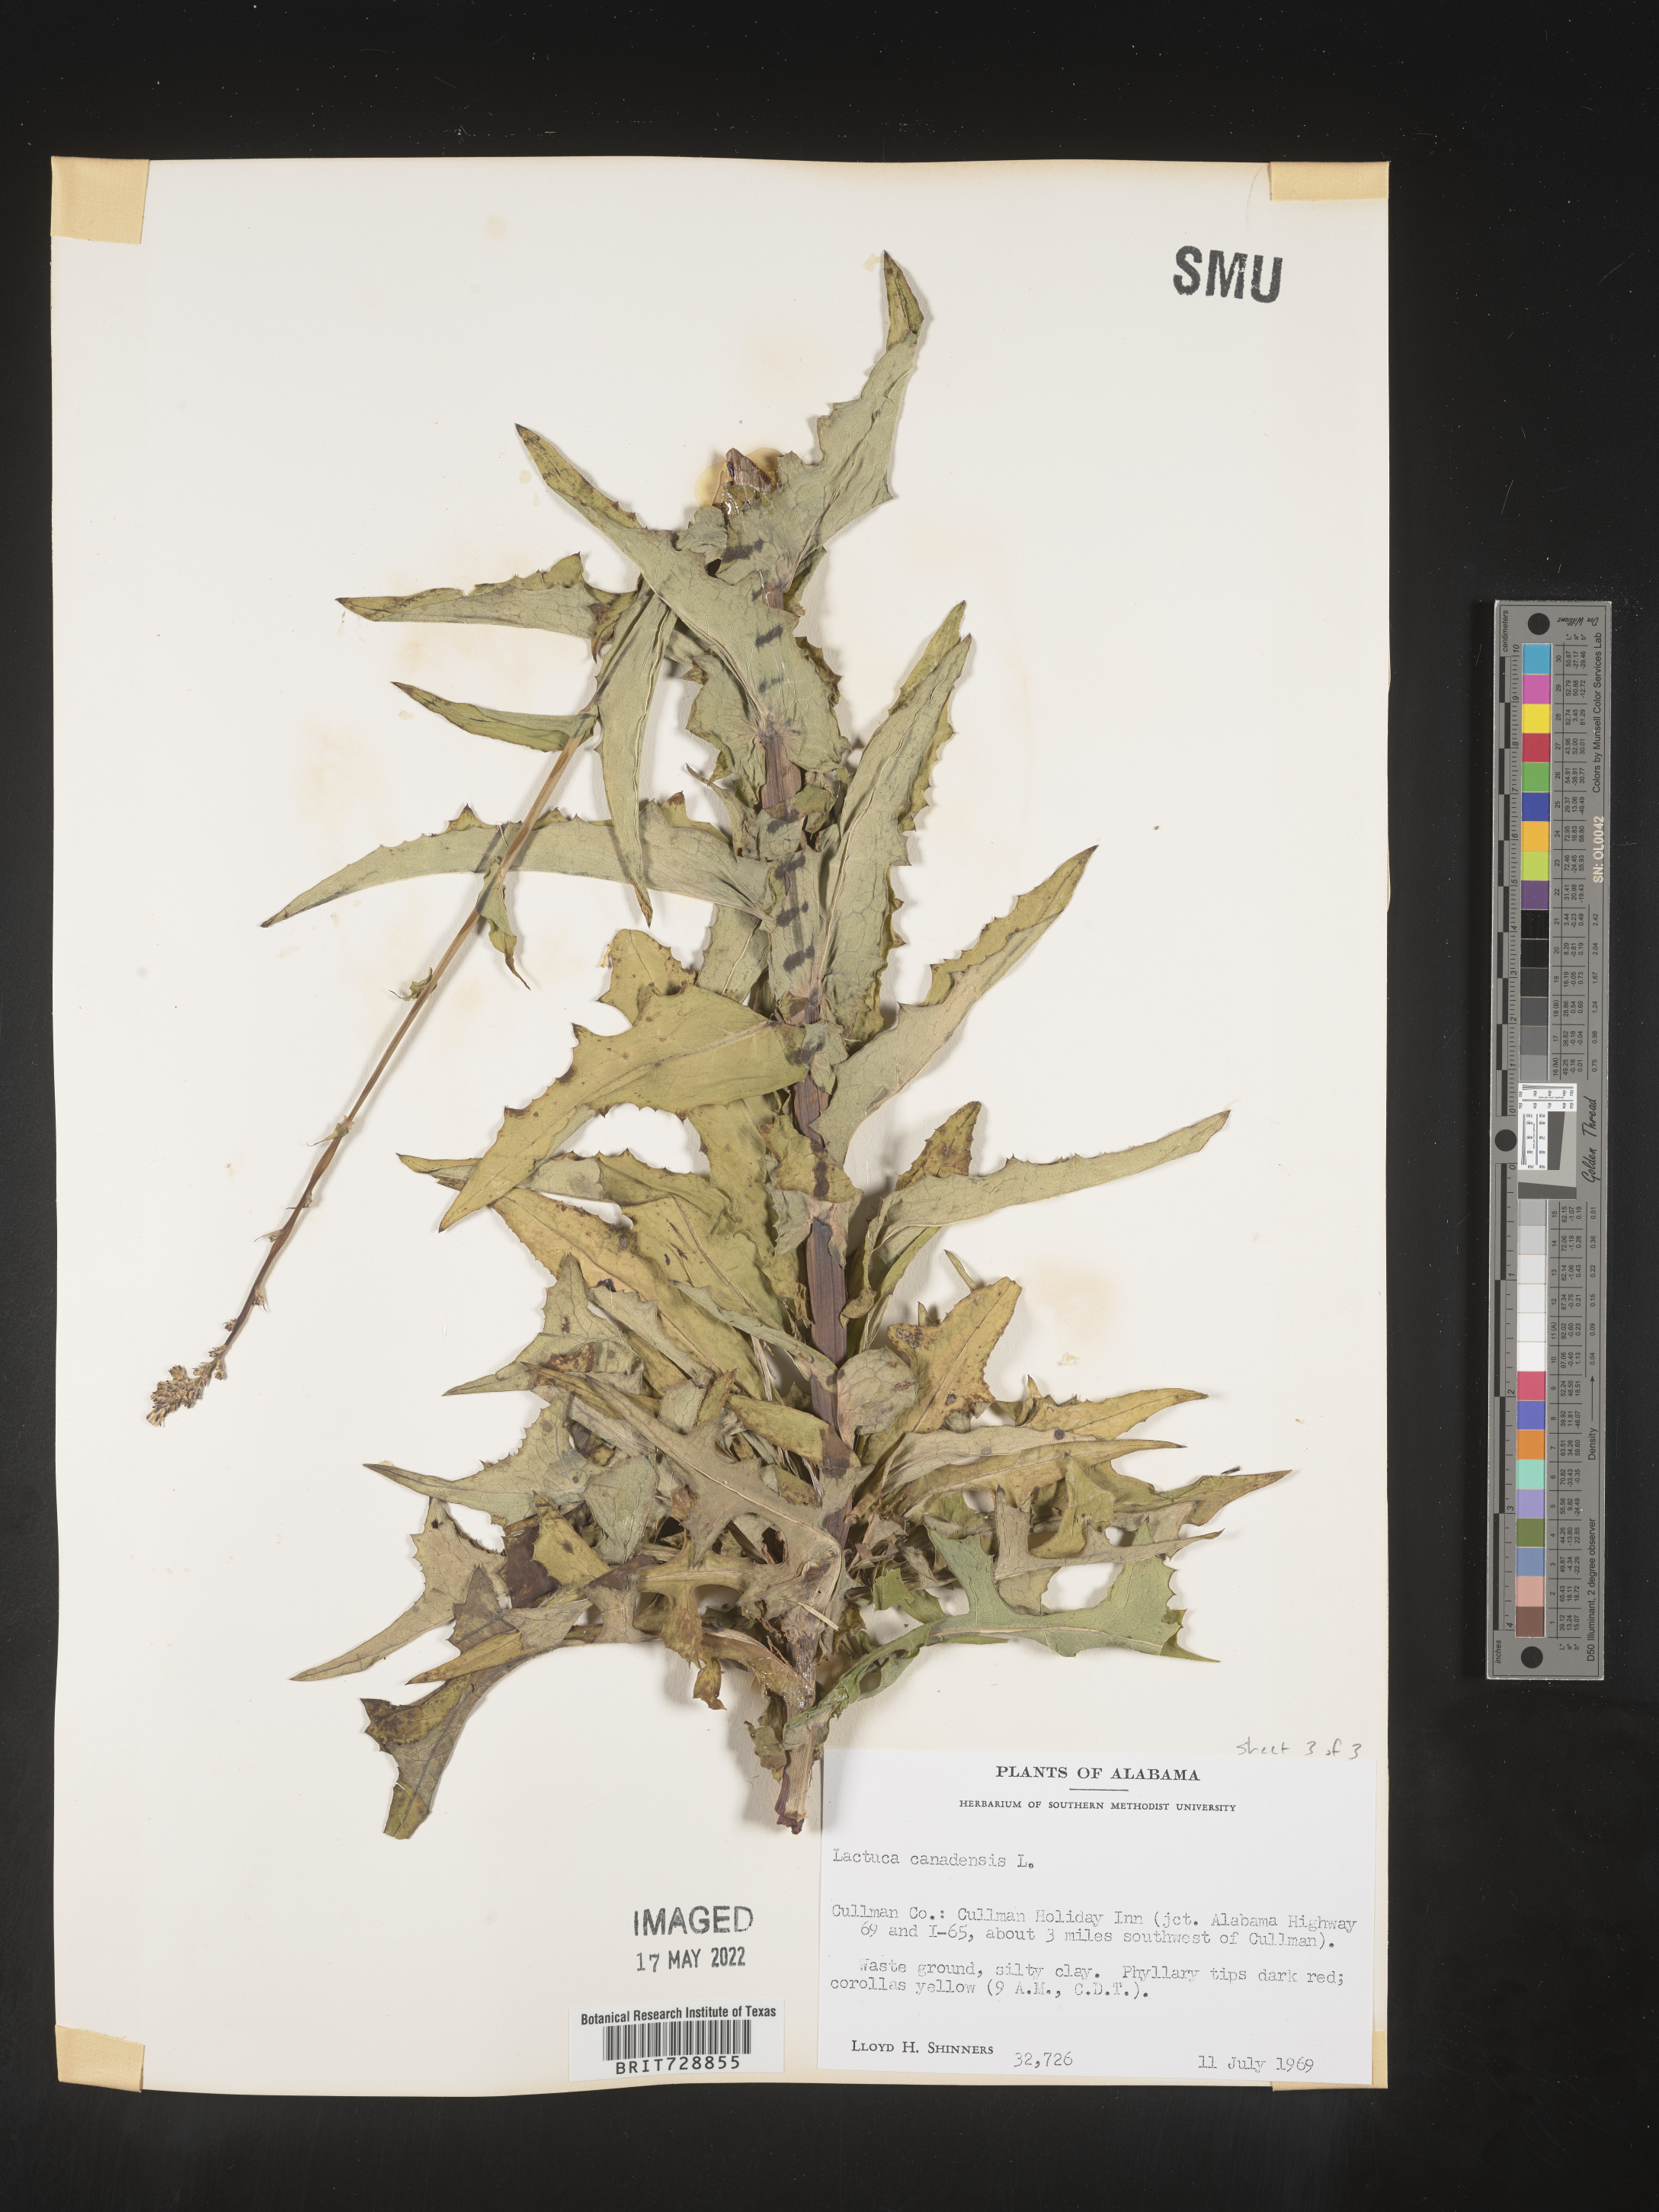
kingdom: Plantae
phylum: Tracheophyta
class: Magnoliopsida
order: Asterales
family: Asteraceae
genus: Lactuca
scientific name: Lactuca canadensis
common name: Canada lettuce
